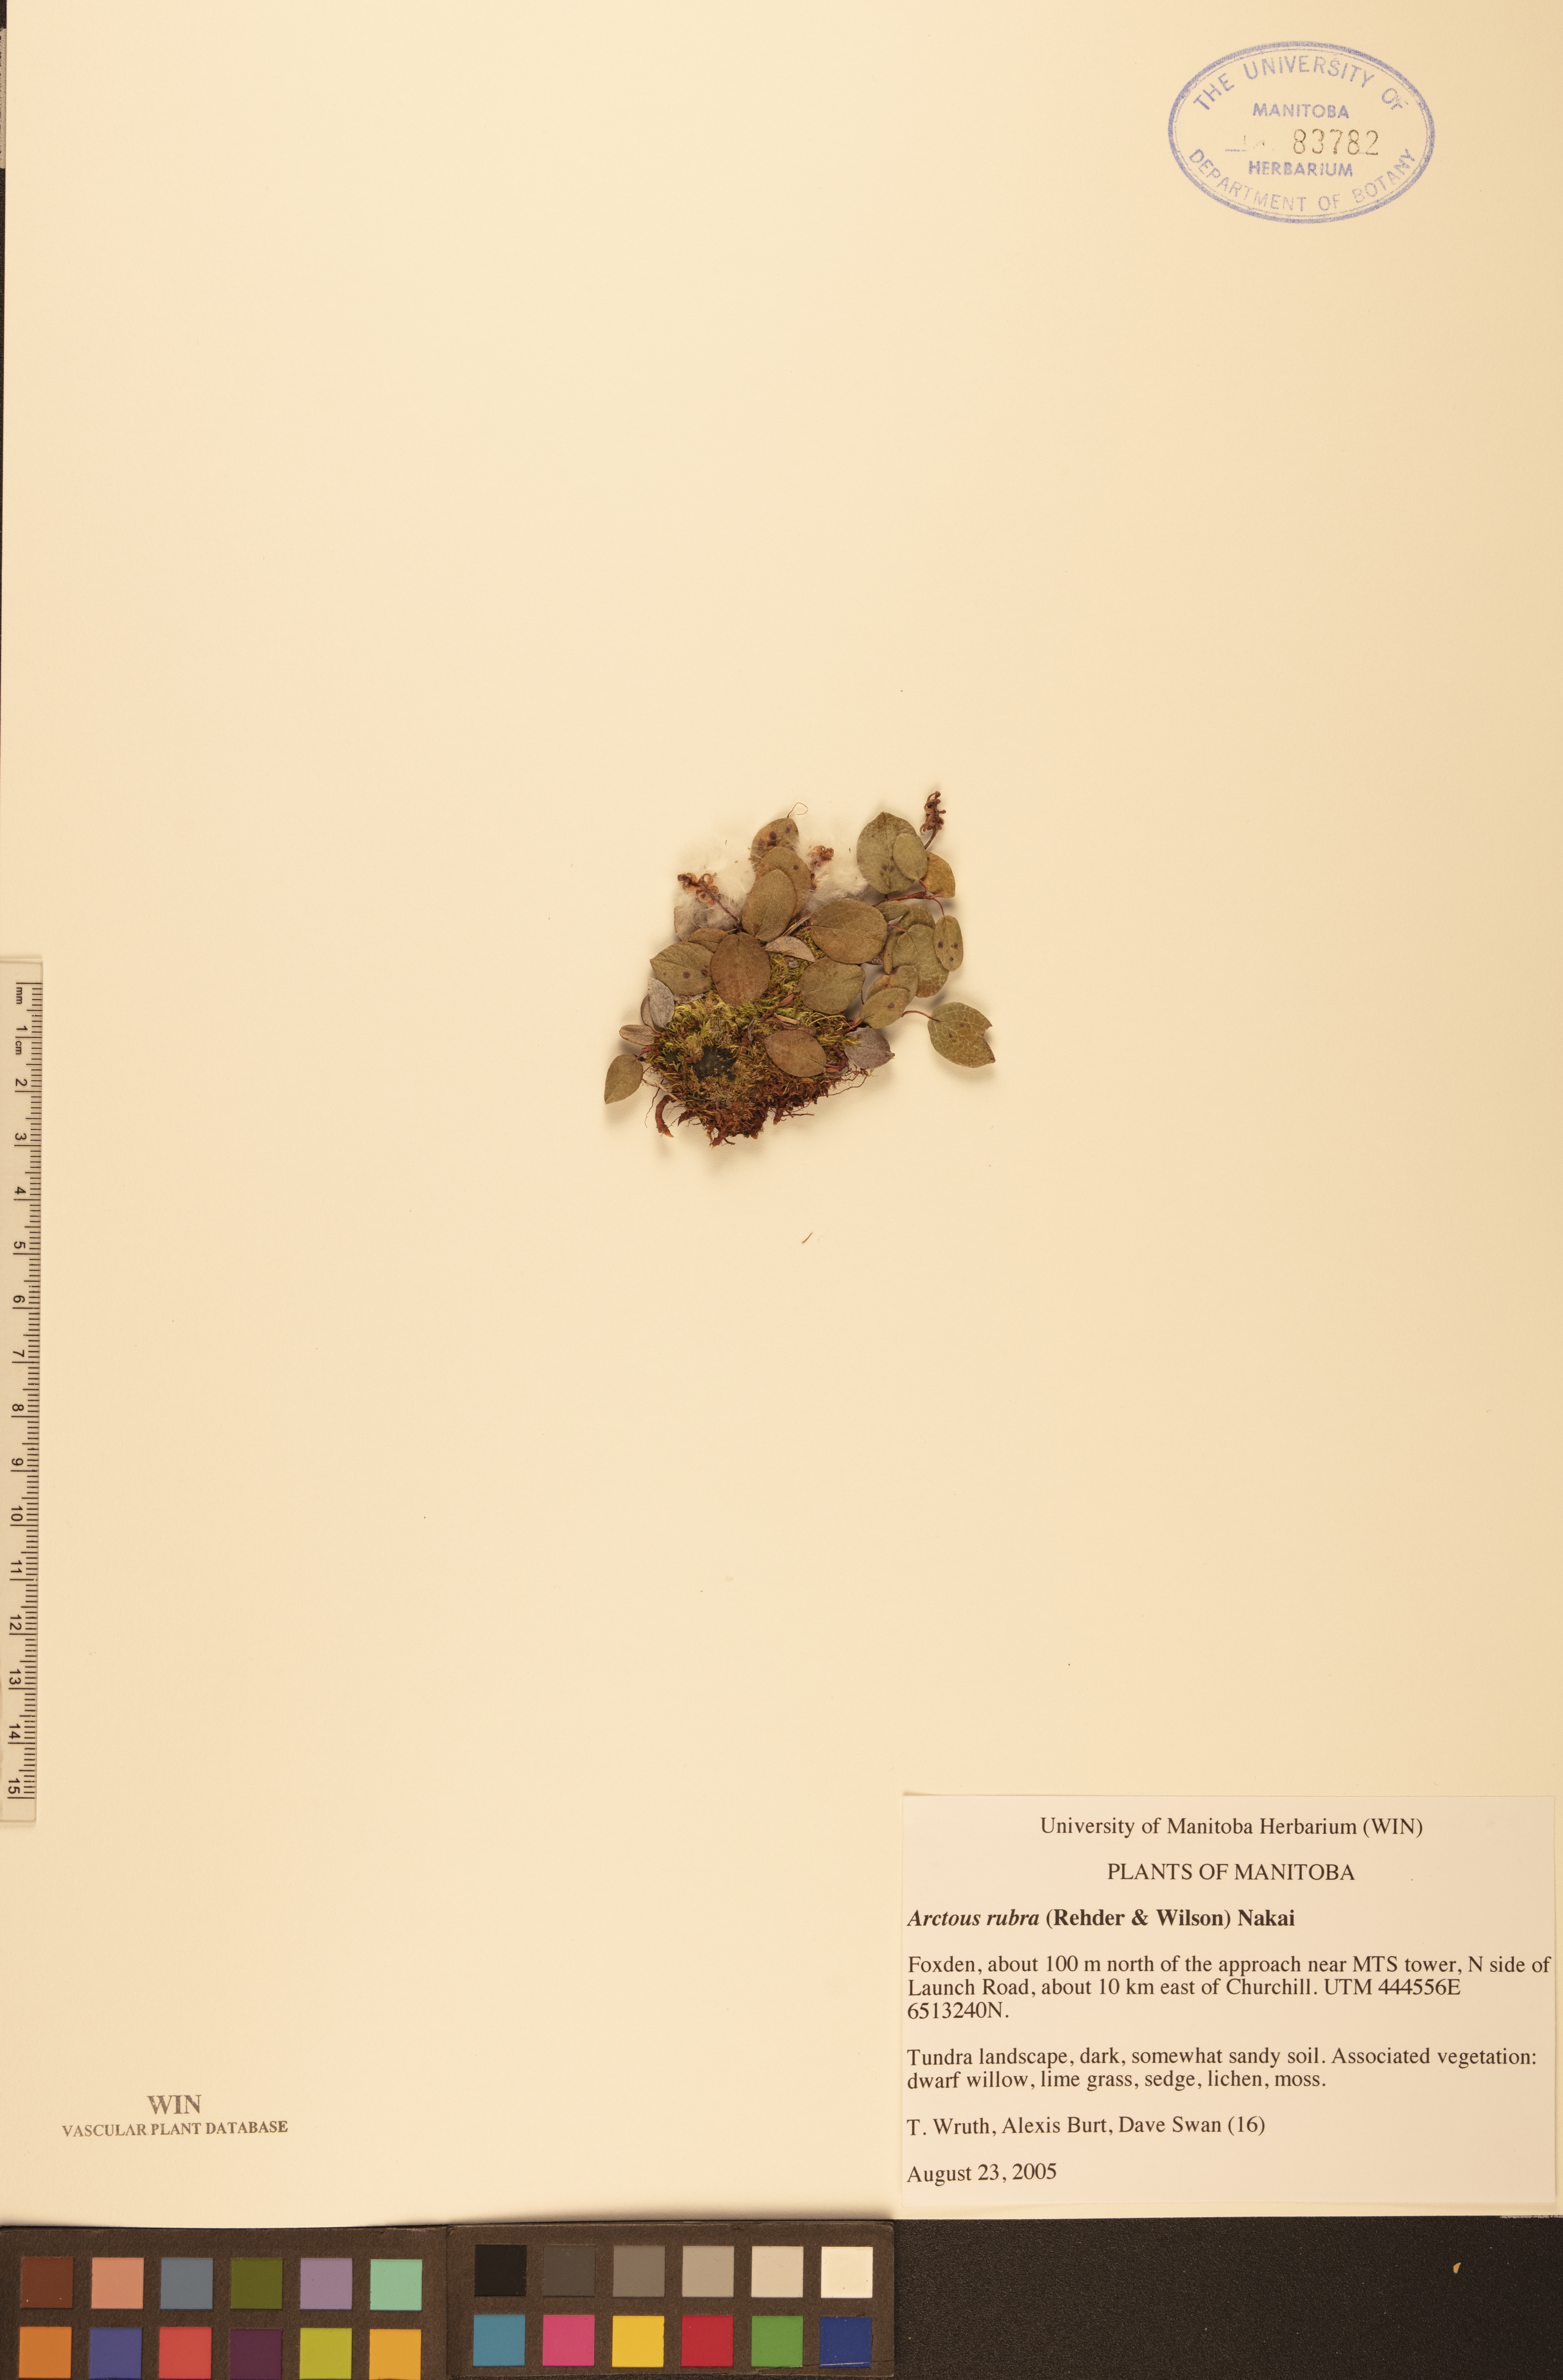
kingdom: Plantae
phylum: Tracheophyta
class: Magnoliopsida
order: Ericales
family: Ericaceae
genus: Arctostaphylos
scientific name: Arctostaphylos rubra
